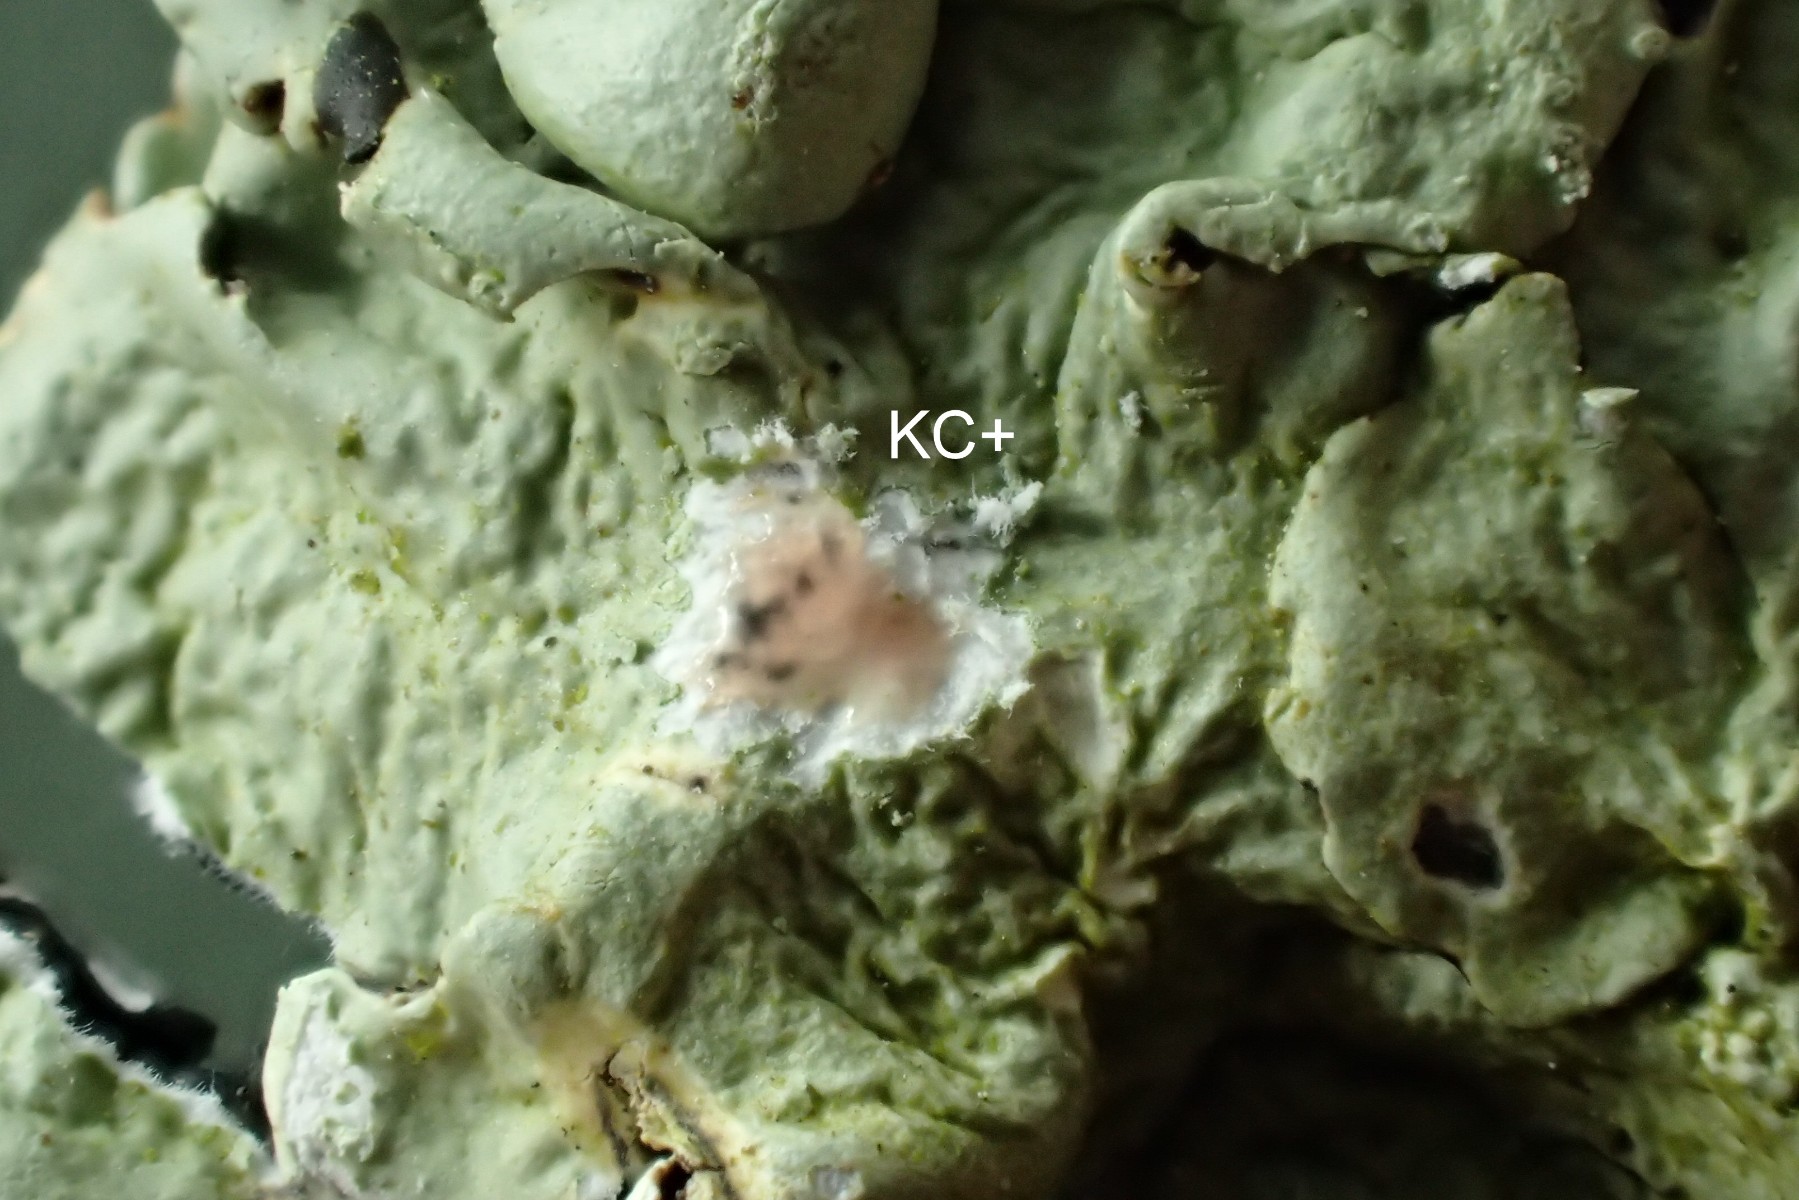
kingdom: Fungi
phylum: Ascomycota
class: Lecanoromycetes
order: Lecanorales
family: Parmeliaceae
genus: Flavoparmelia
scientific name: Flavoparmelia caperata
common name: gulgrøn skållav
